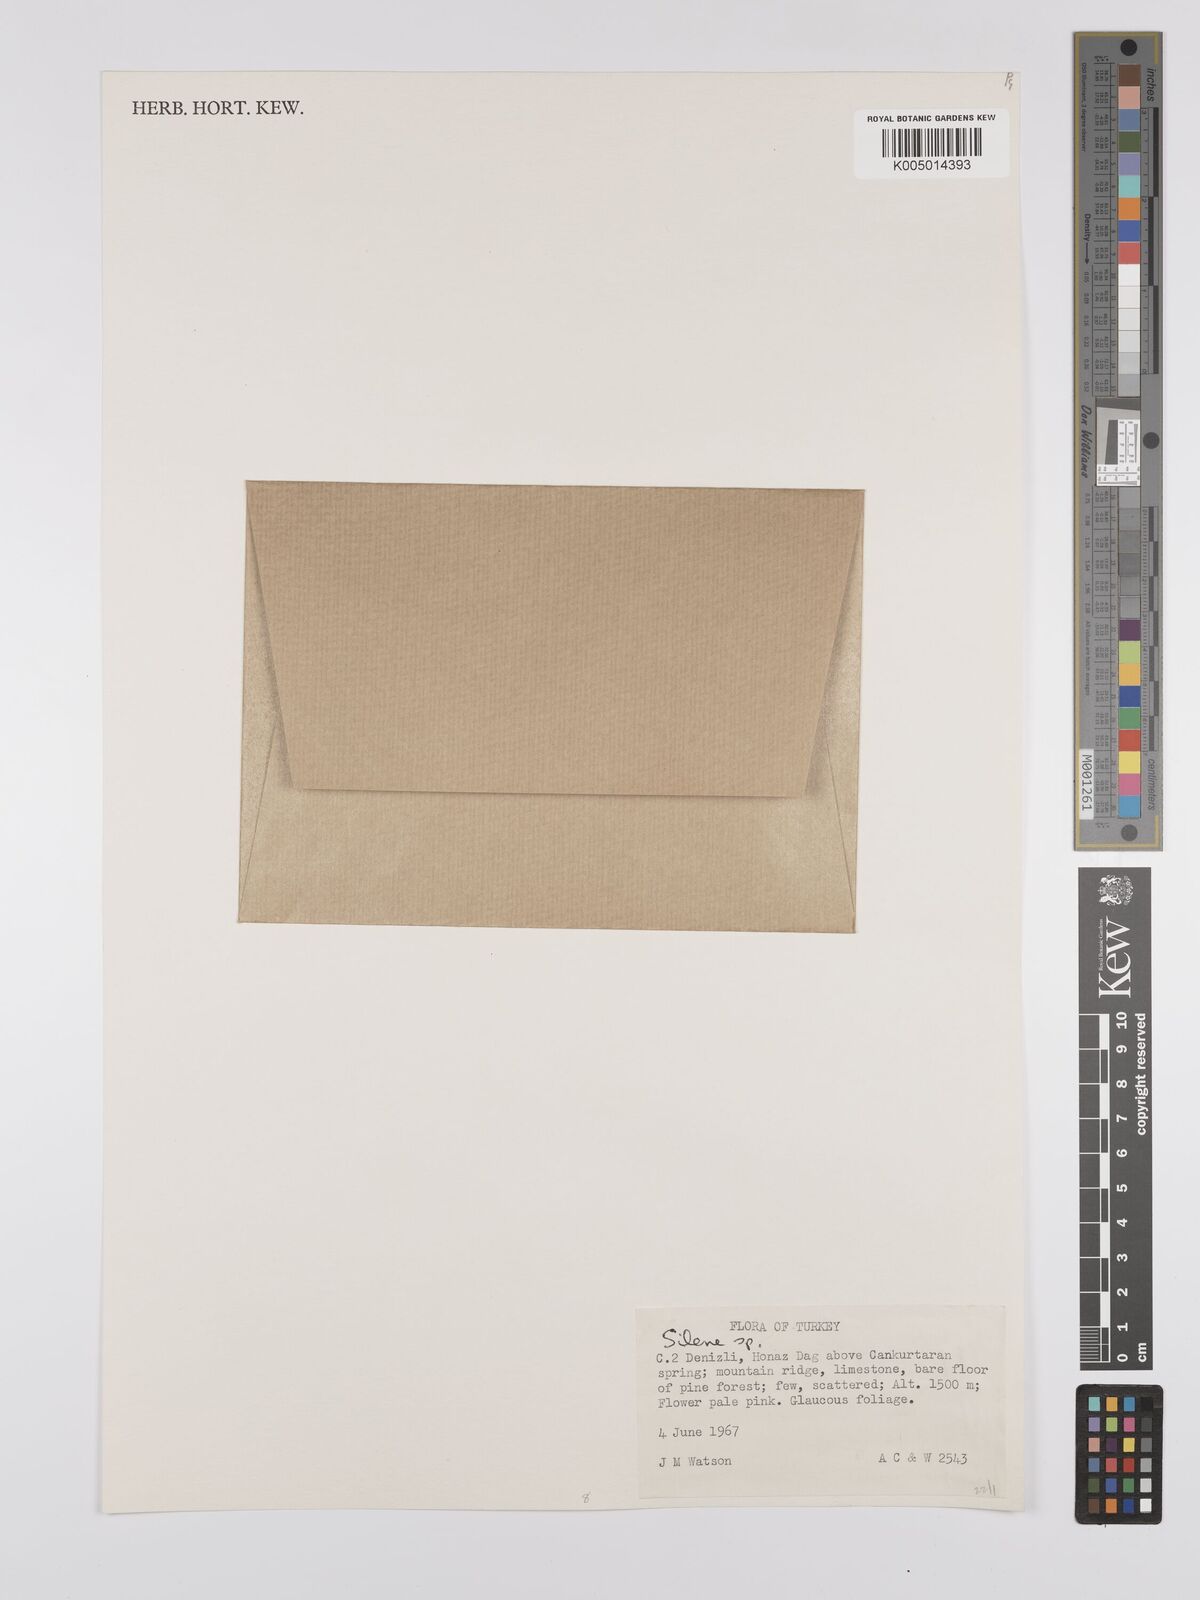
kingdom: Plantae
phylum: Tracheophyta
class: Magnoliopsida
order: Caryophyllales
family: Caryophyllaceae
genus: Silene
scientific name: Silene
